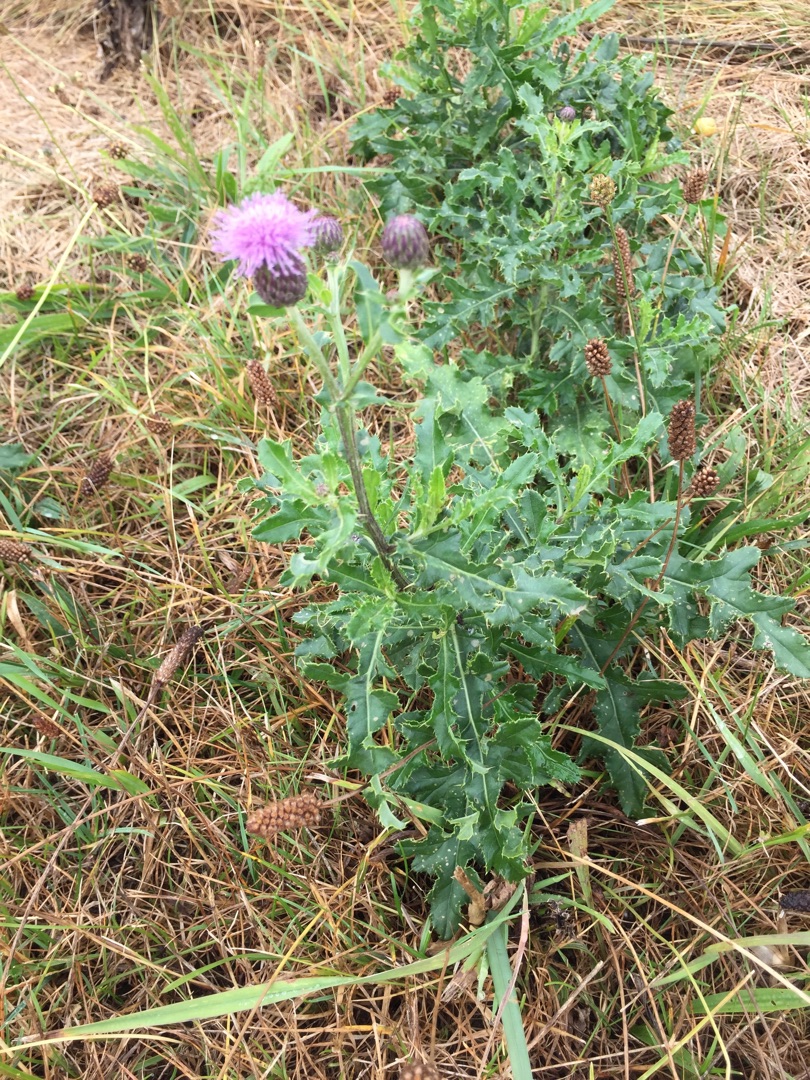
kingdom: Plantae
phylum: Tracheophyta
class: Magnoliopsida
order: Asterales
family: Asteraceae
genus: Cirsium
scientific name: Cirsium arvense
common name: Ager-tidsel
